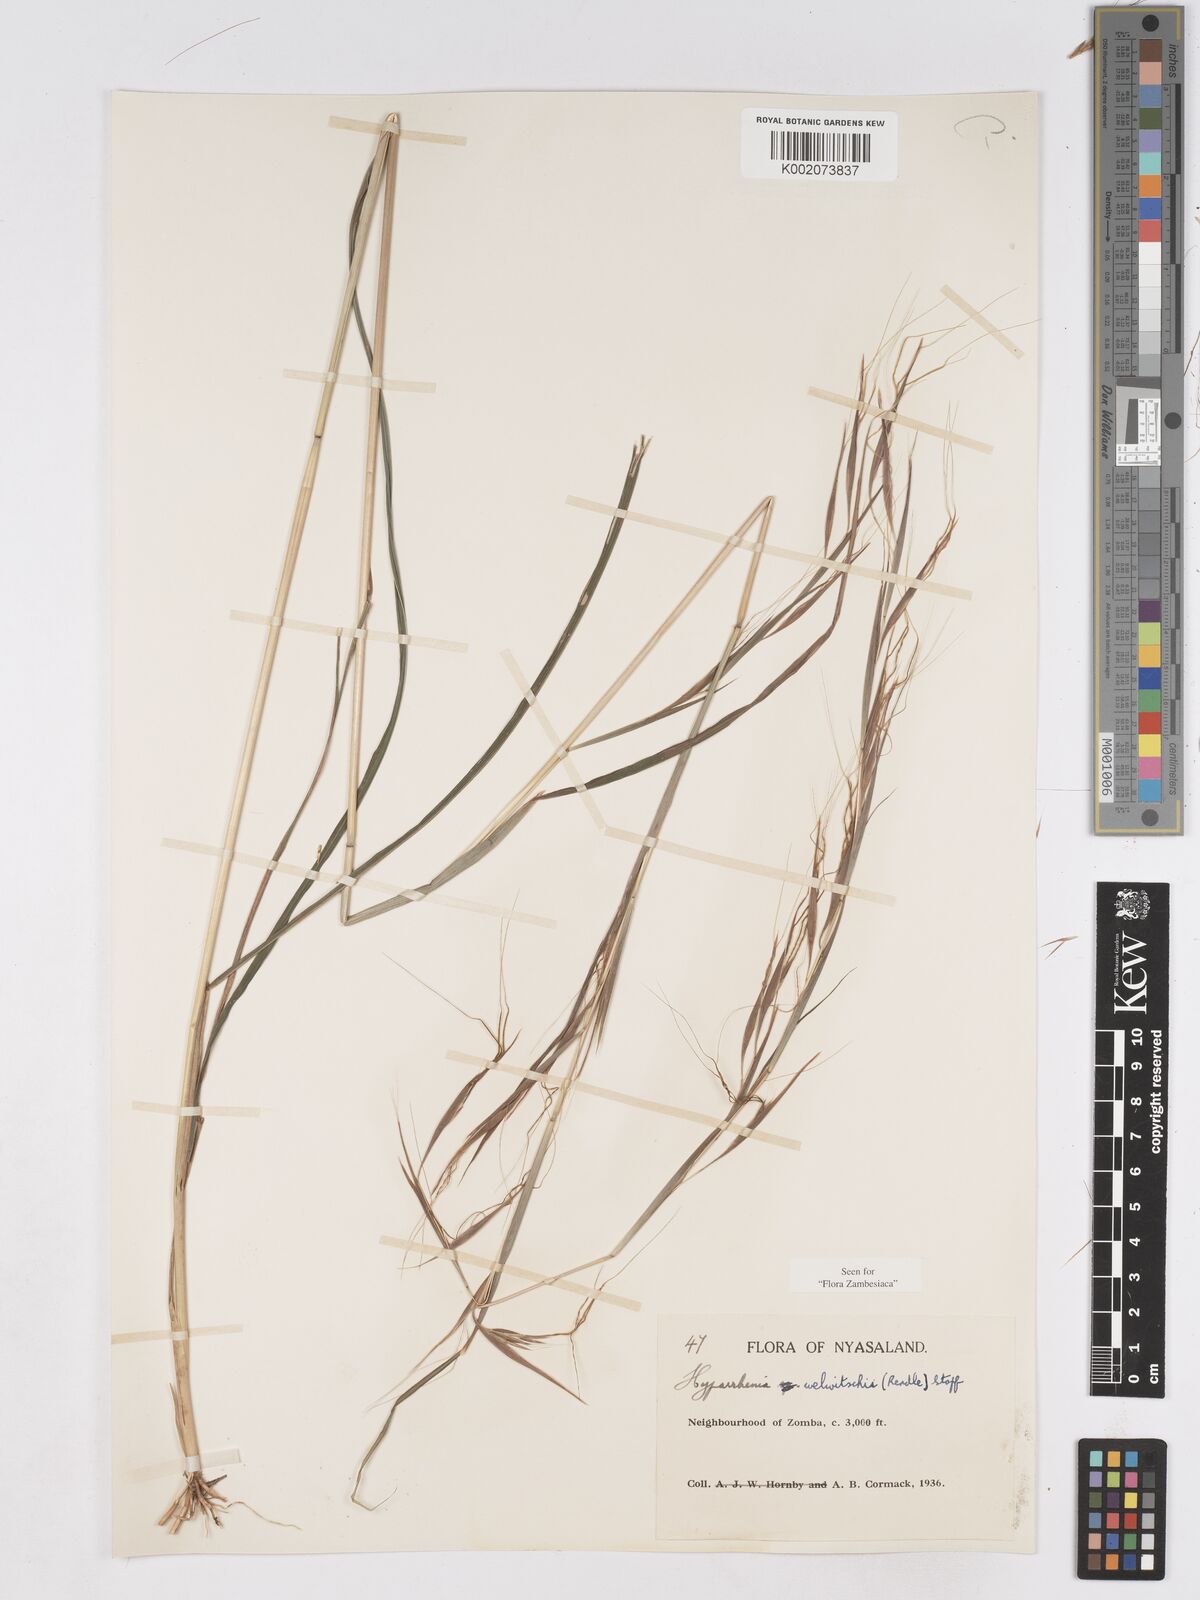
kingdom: Plantae
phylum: Tracheophyta
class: Liliopsida
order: Poales
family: Poaceae
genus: Hyparrhenia
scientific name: Hyparrhenia welwitschii
